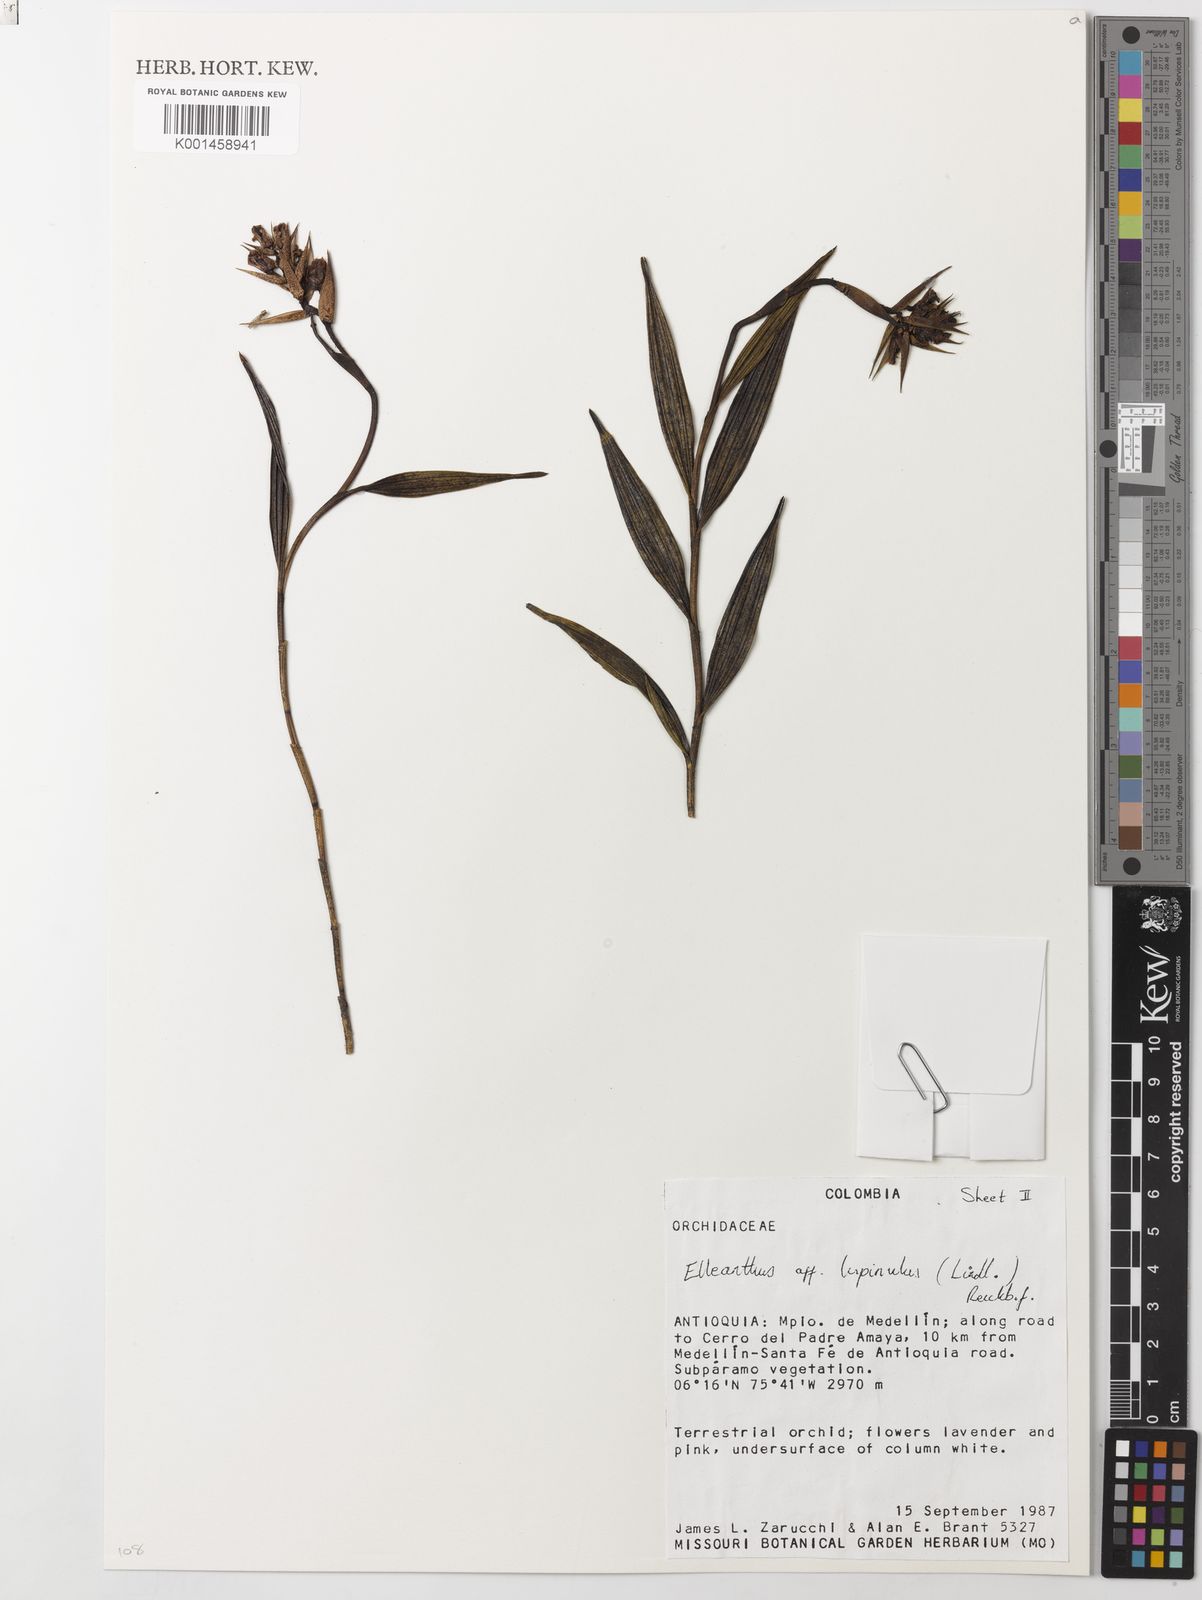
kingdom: Plantae
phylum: Tracheophyta
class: Liliopsida
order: Asparagales
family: Orchidaceae
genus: Elleanthus
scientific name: Elleanthus maculatus
